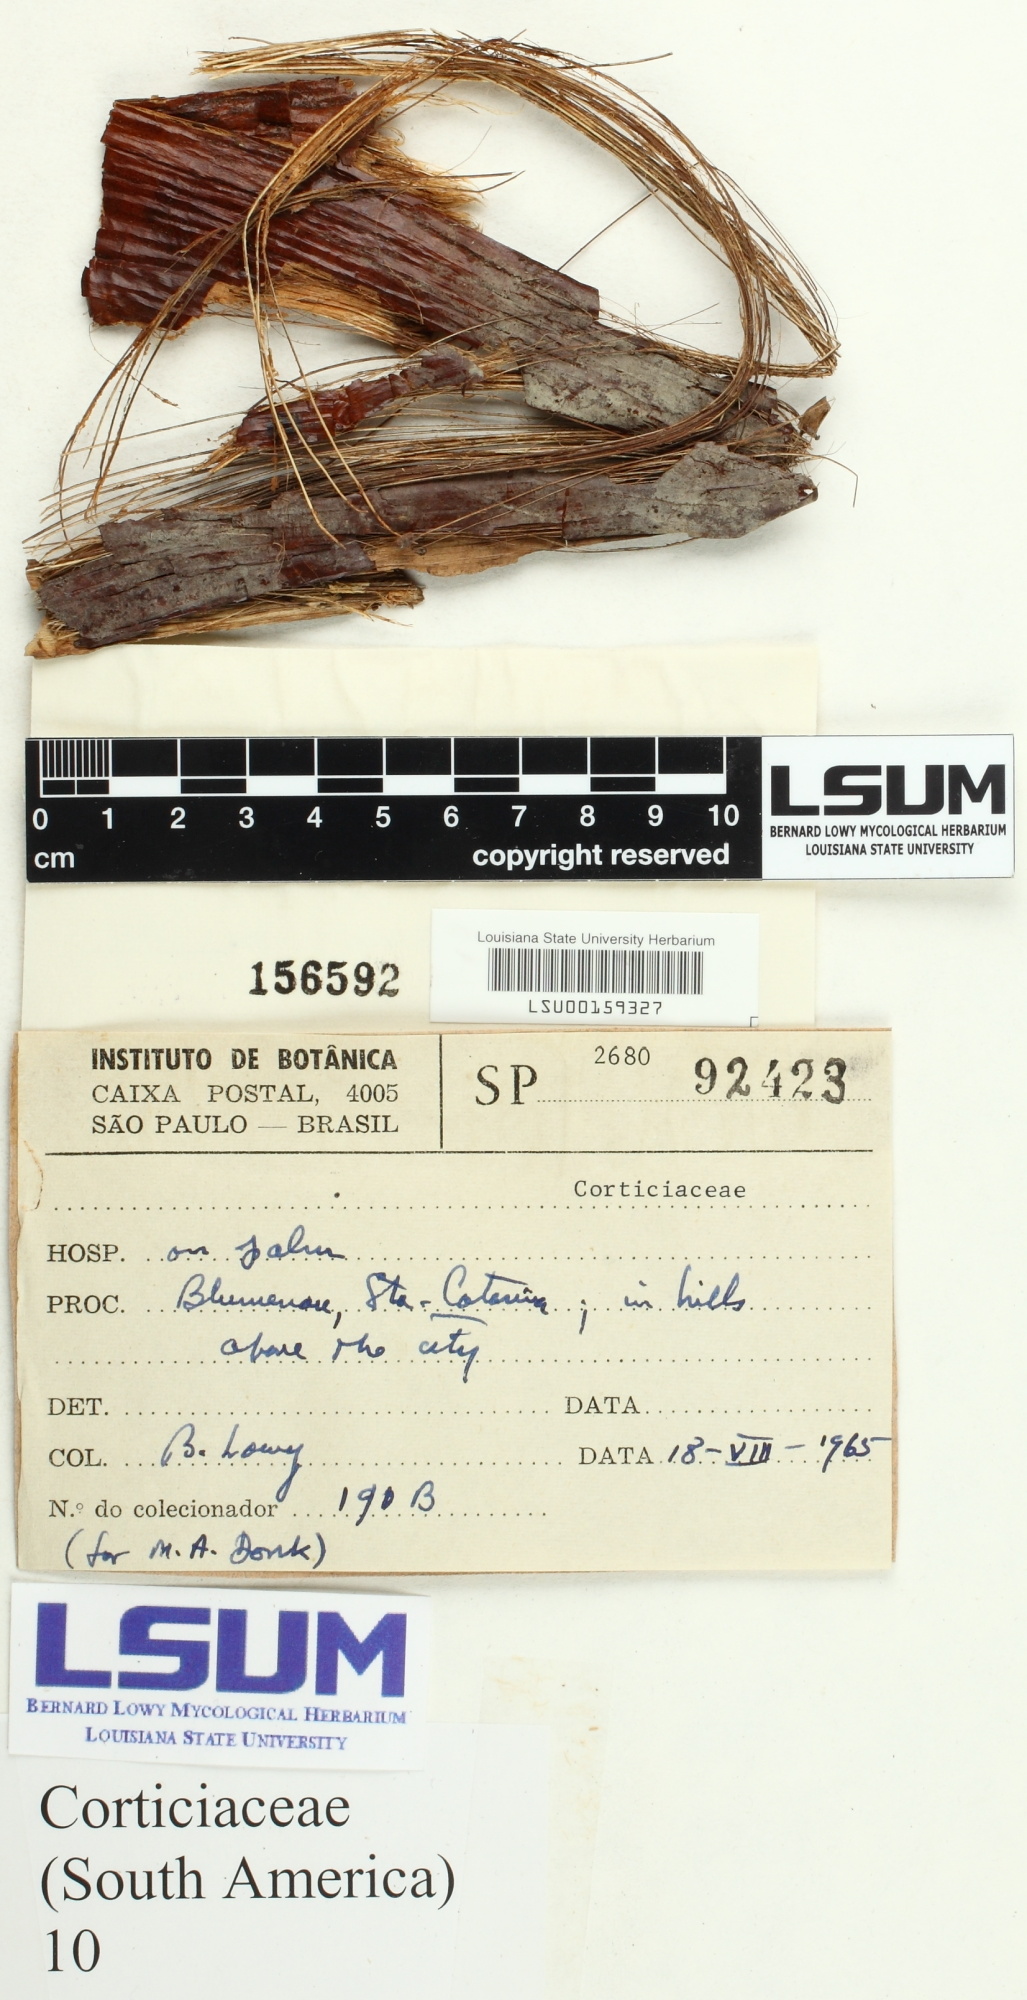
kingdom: Fungi
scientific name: Fungi
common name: Fungi
